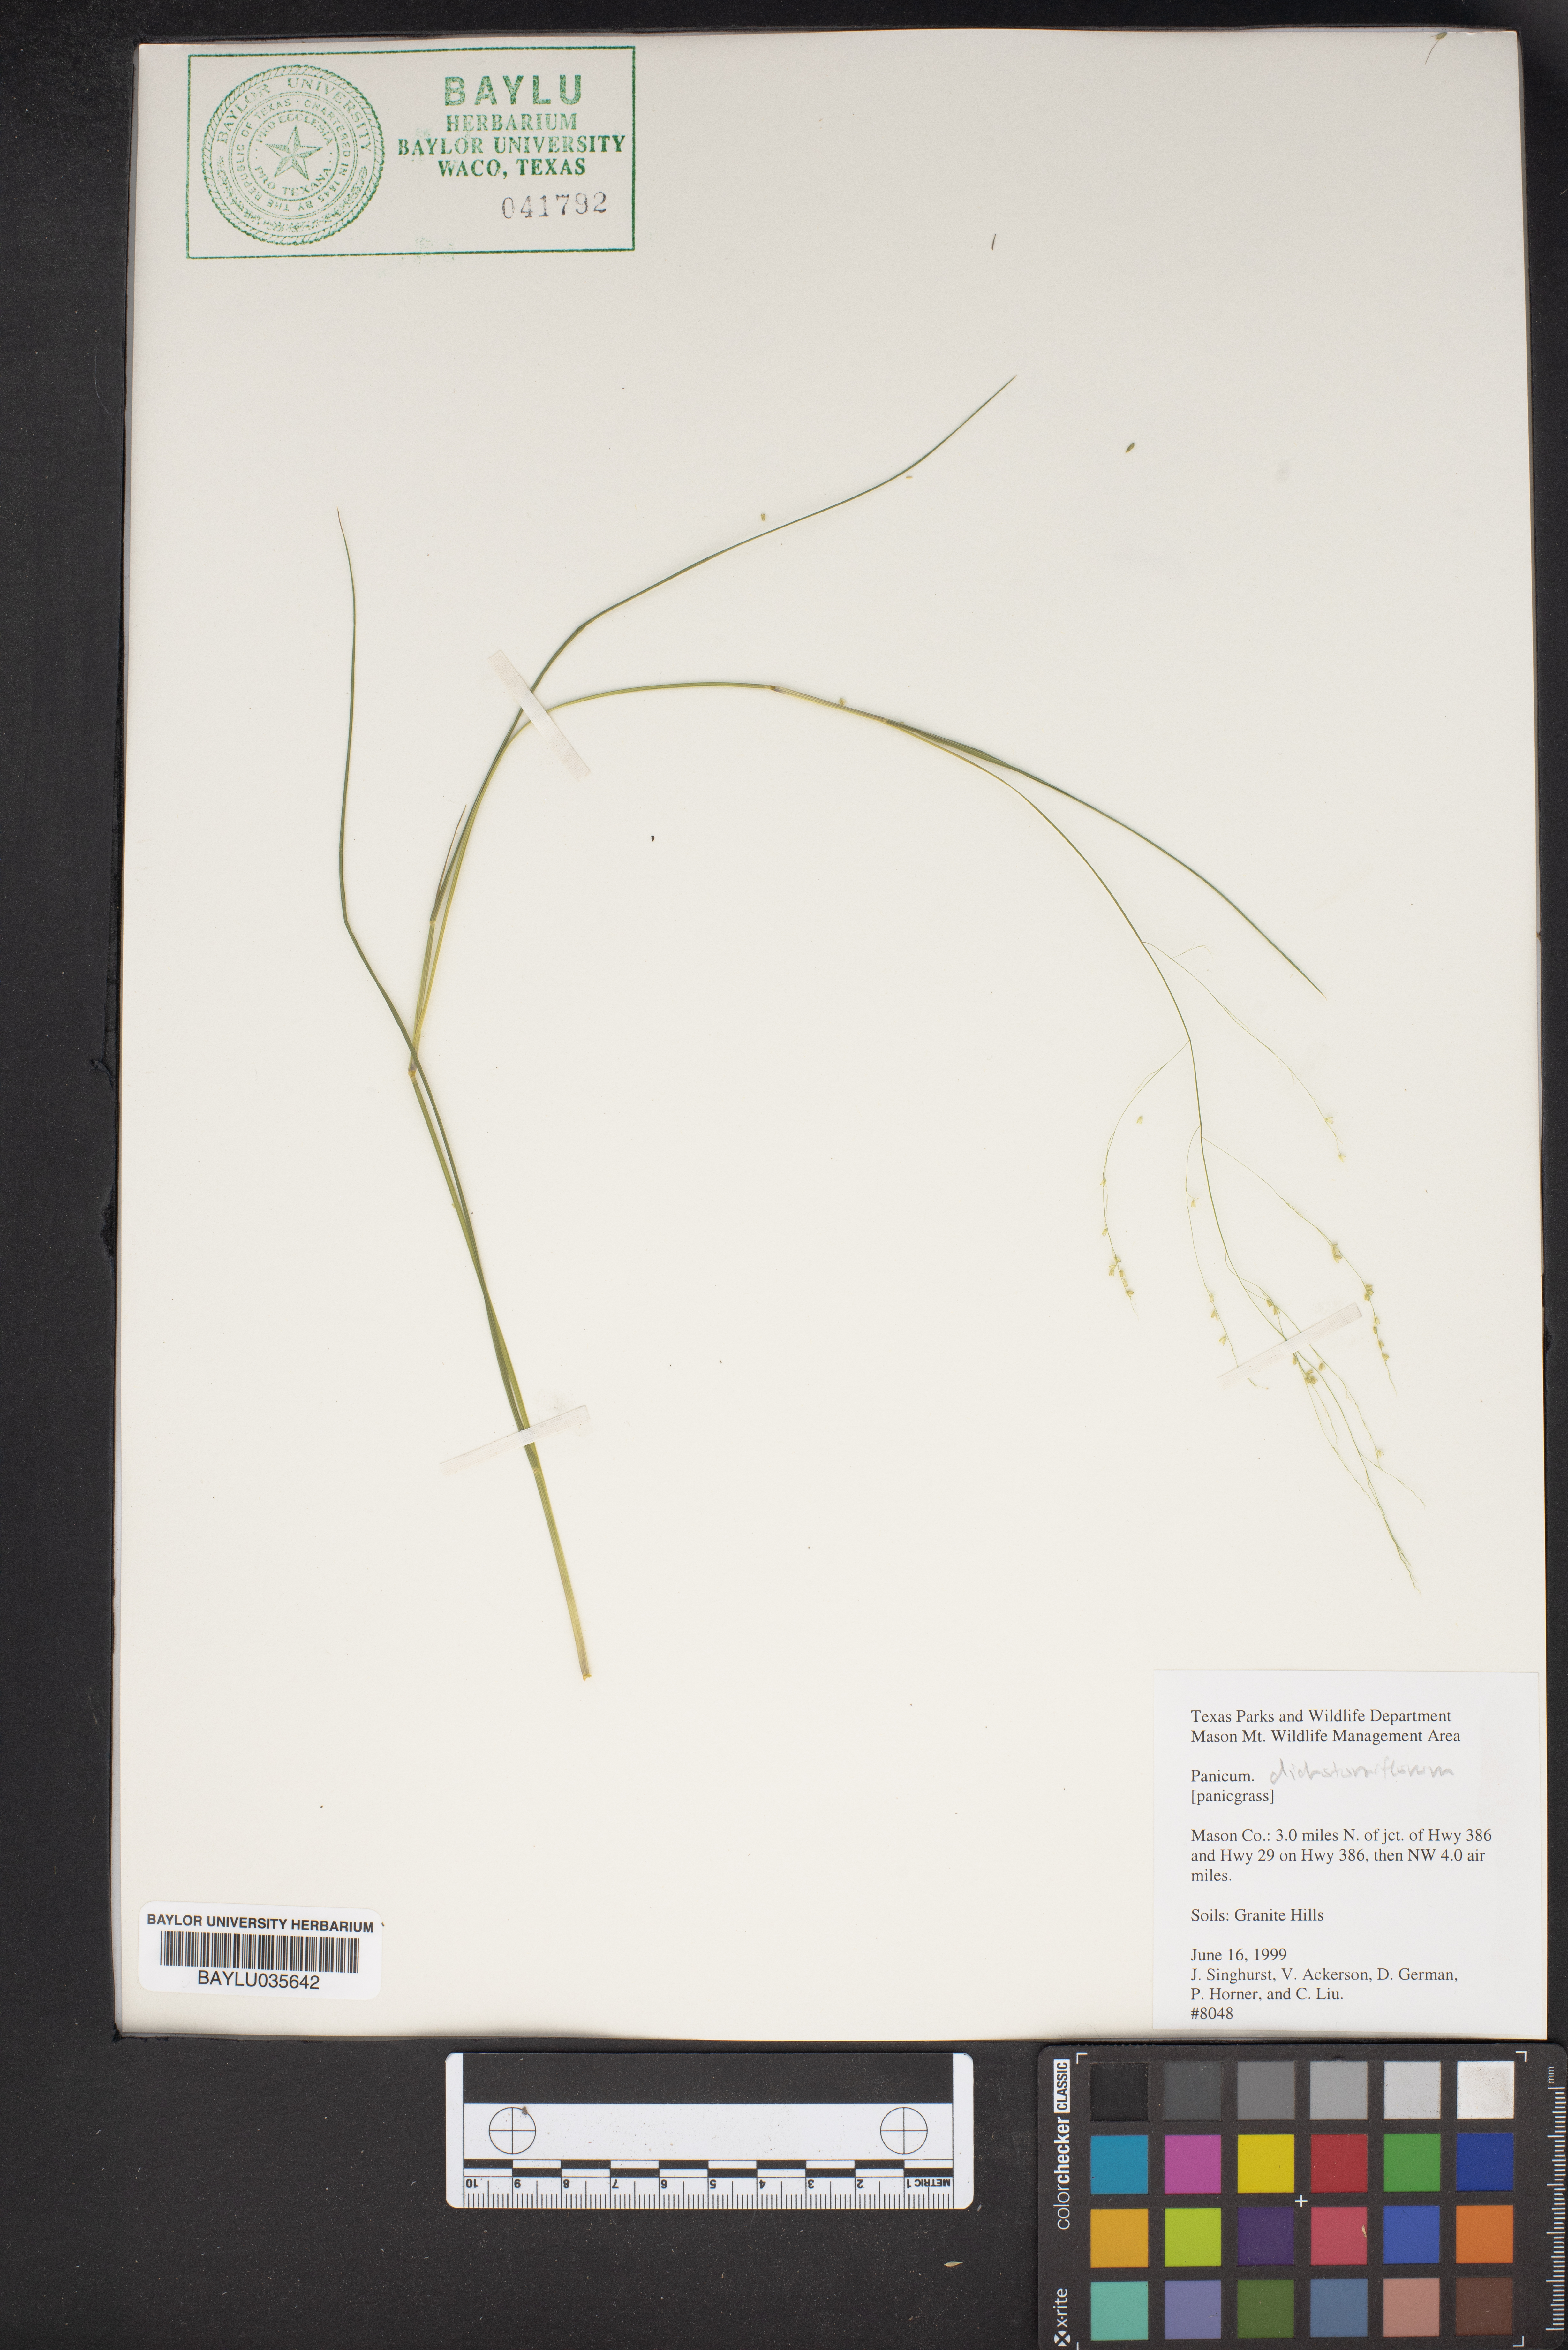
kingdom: Plantae
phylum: Tracheophyta
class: Liliopsida
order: Poales
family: Poaceae
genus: Panicum
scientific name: Panicum dichotomiflorum
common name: Autumn millet
